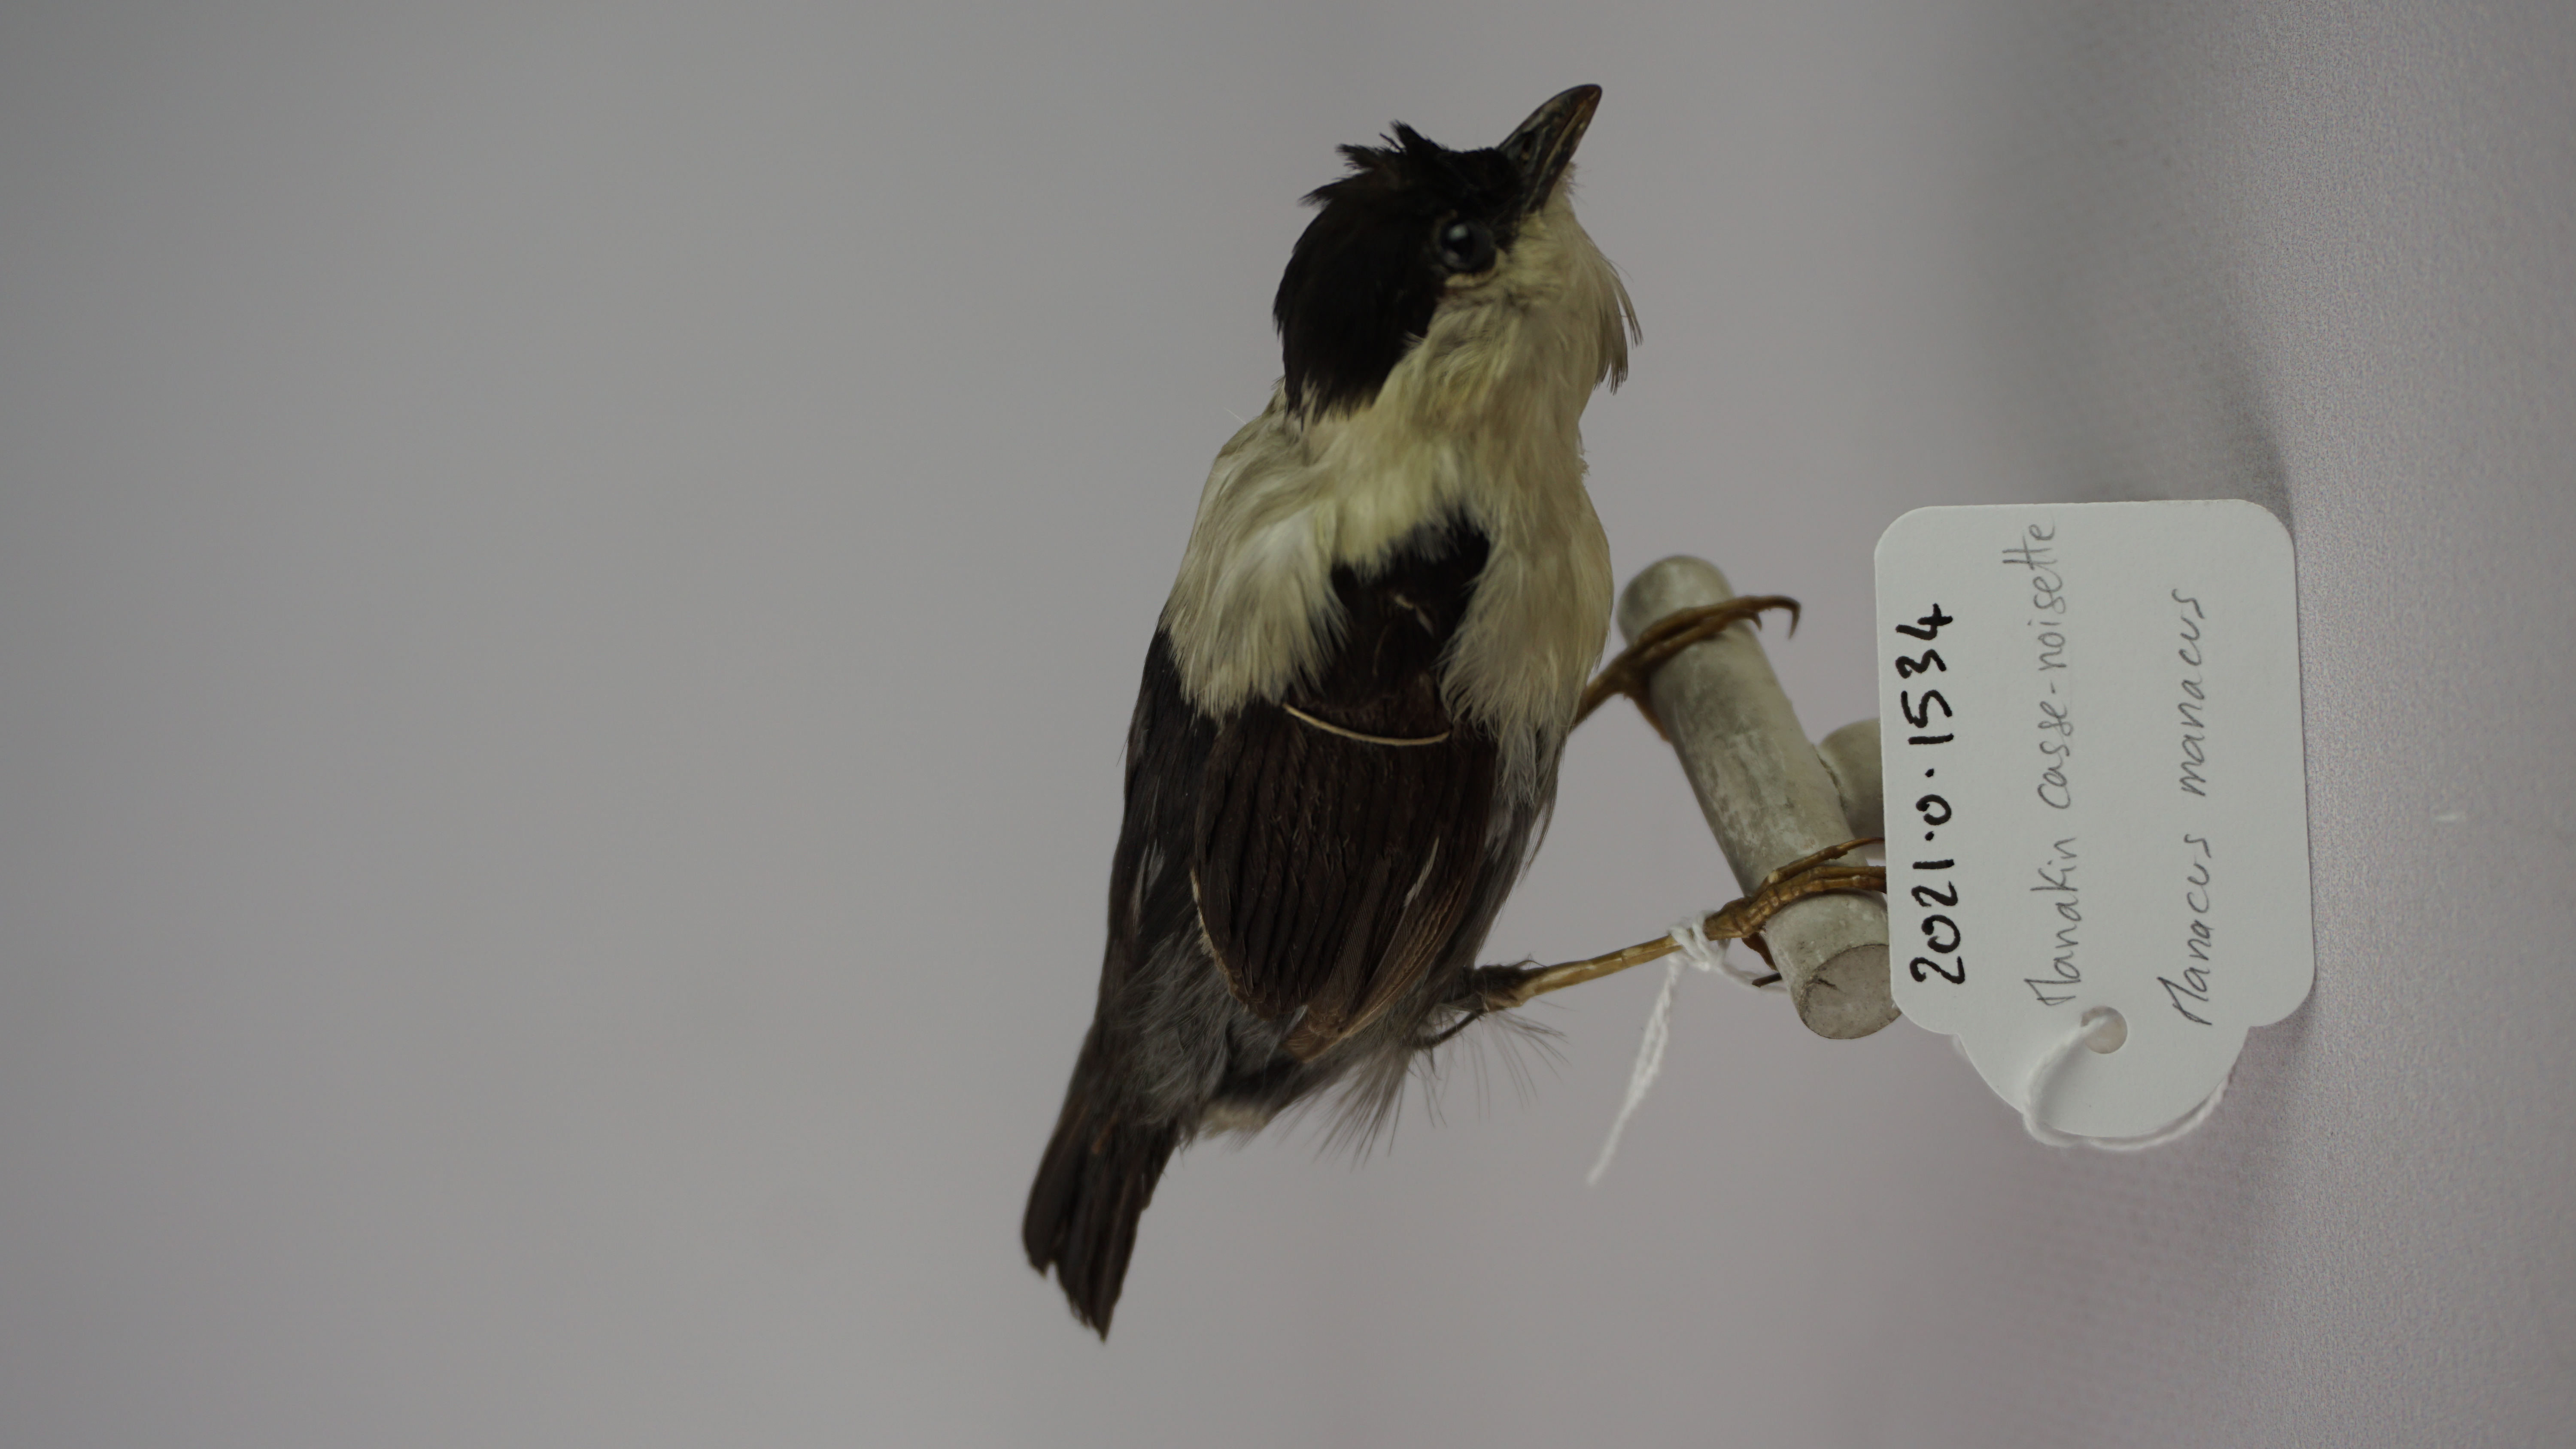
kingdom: Animalia
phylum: Chordata
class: Aves
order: Passeriformes
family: Pipridae
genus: Manacus
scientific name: Manacus manacus
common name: White-bearded manakin
